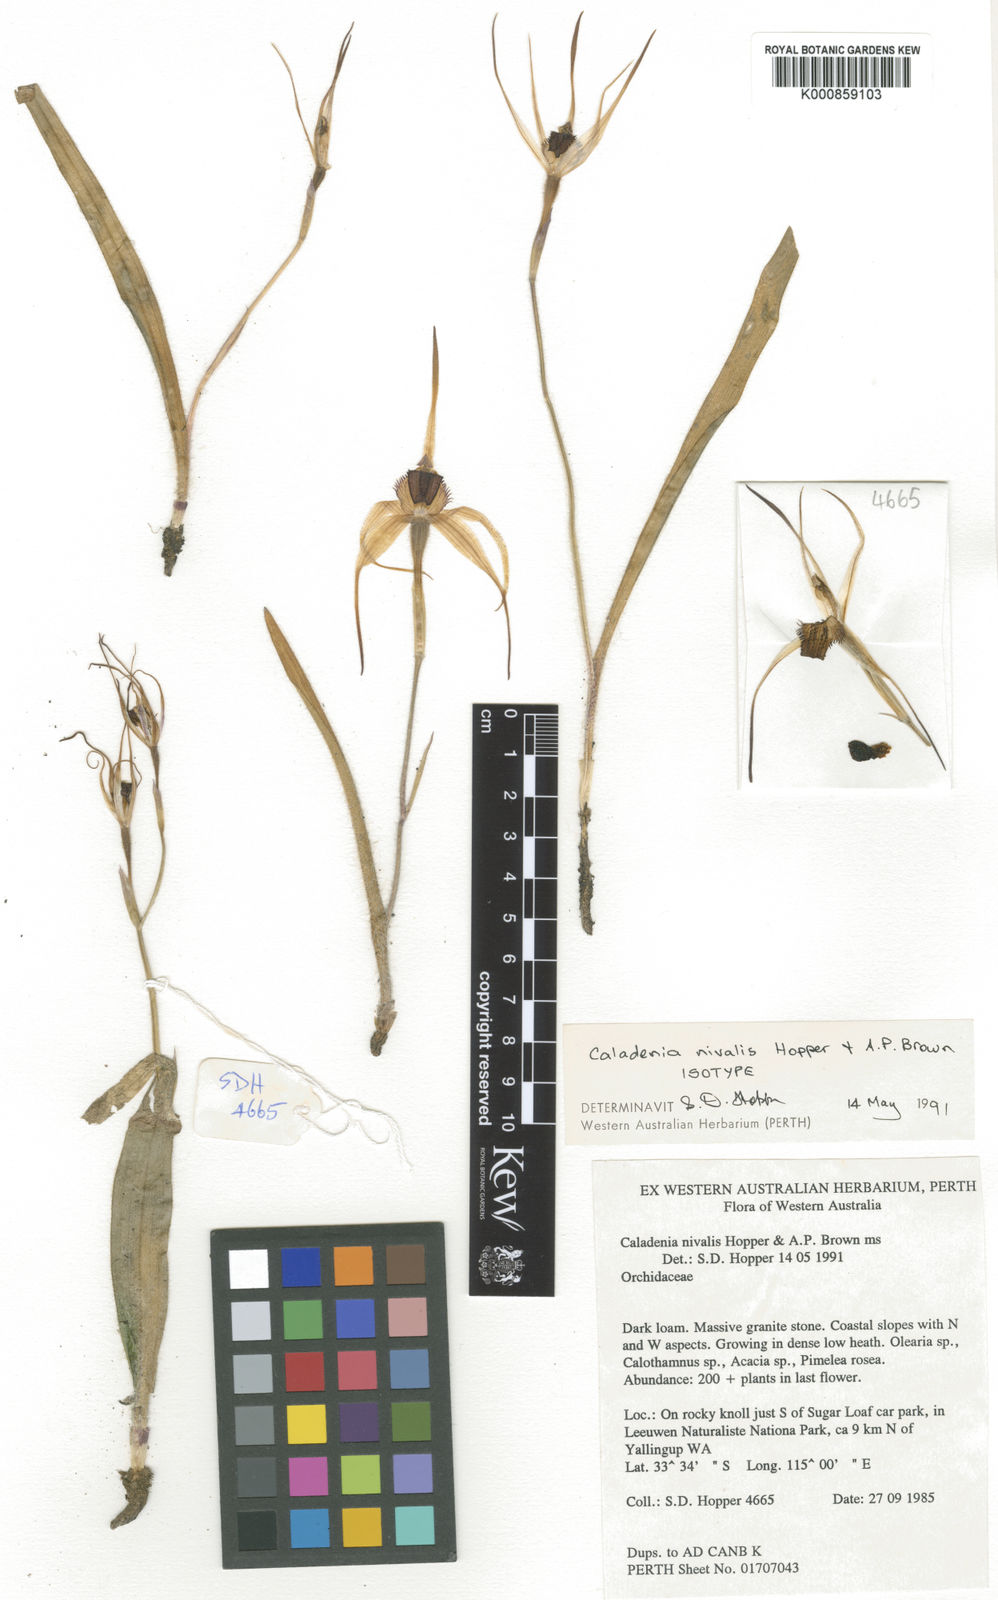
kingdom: Plantae
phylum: Tracheophyta
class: Liliopsida
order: Asparagales
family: Orchidaceae
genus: Caladenia
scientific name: Caladenia nivalis
